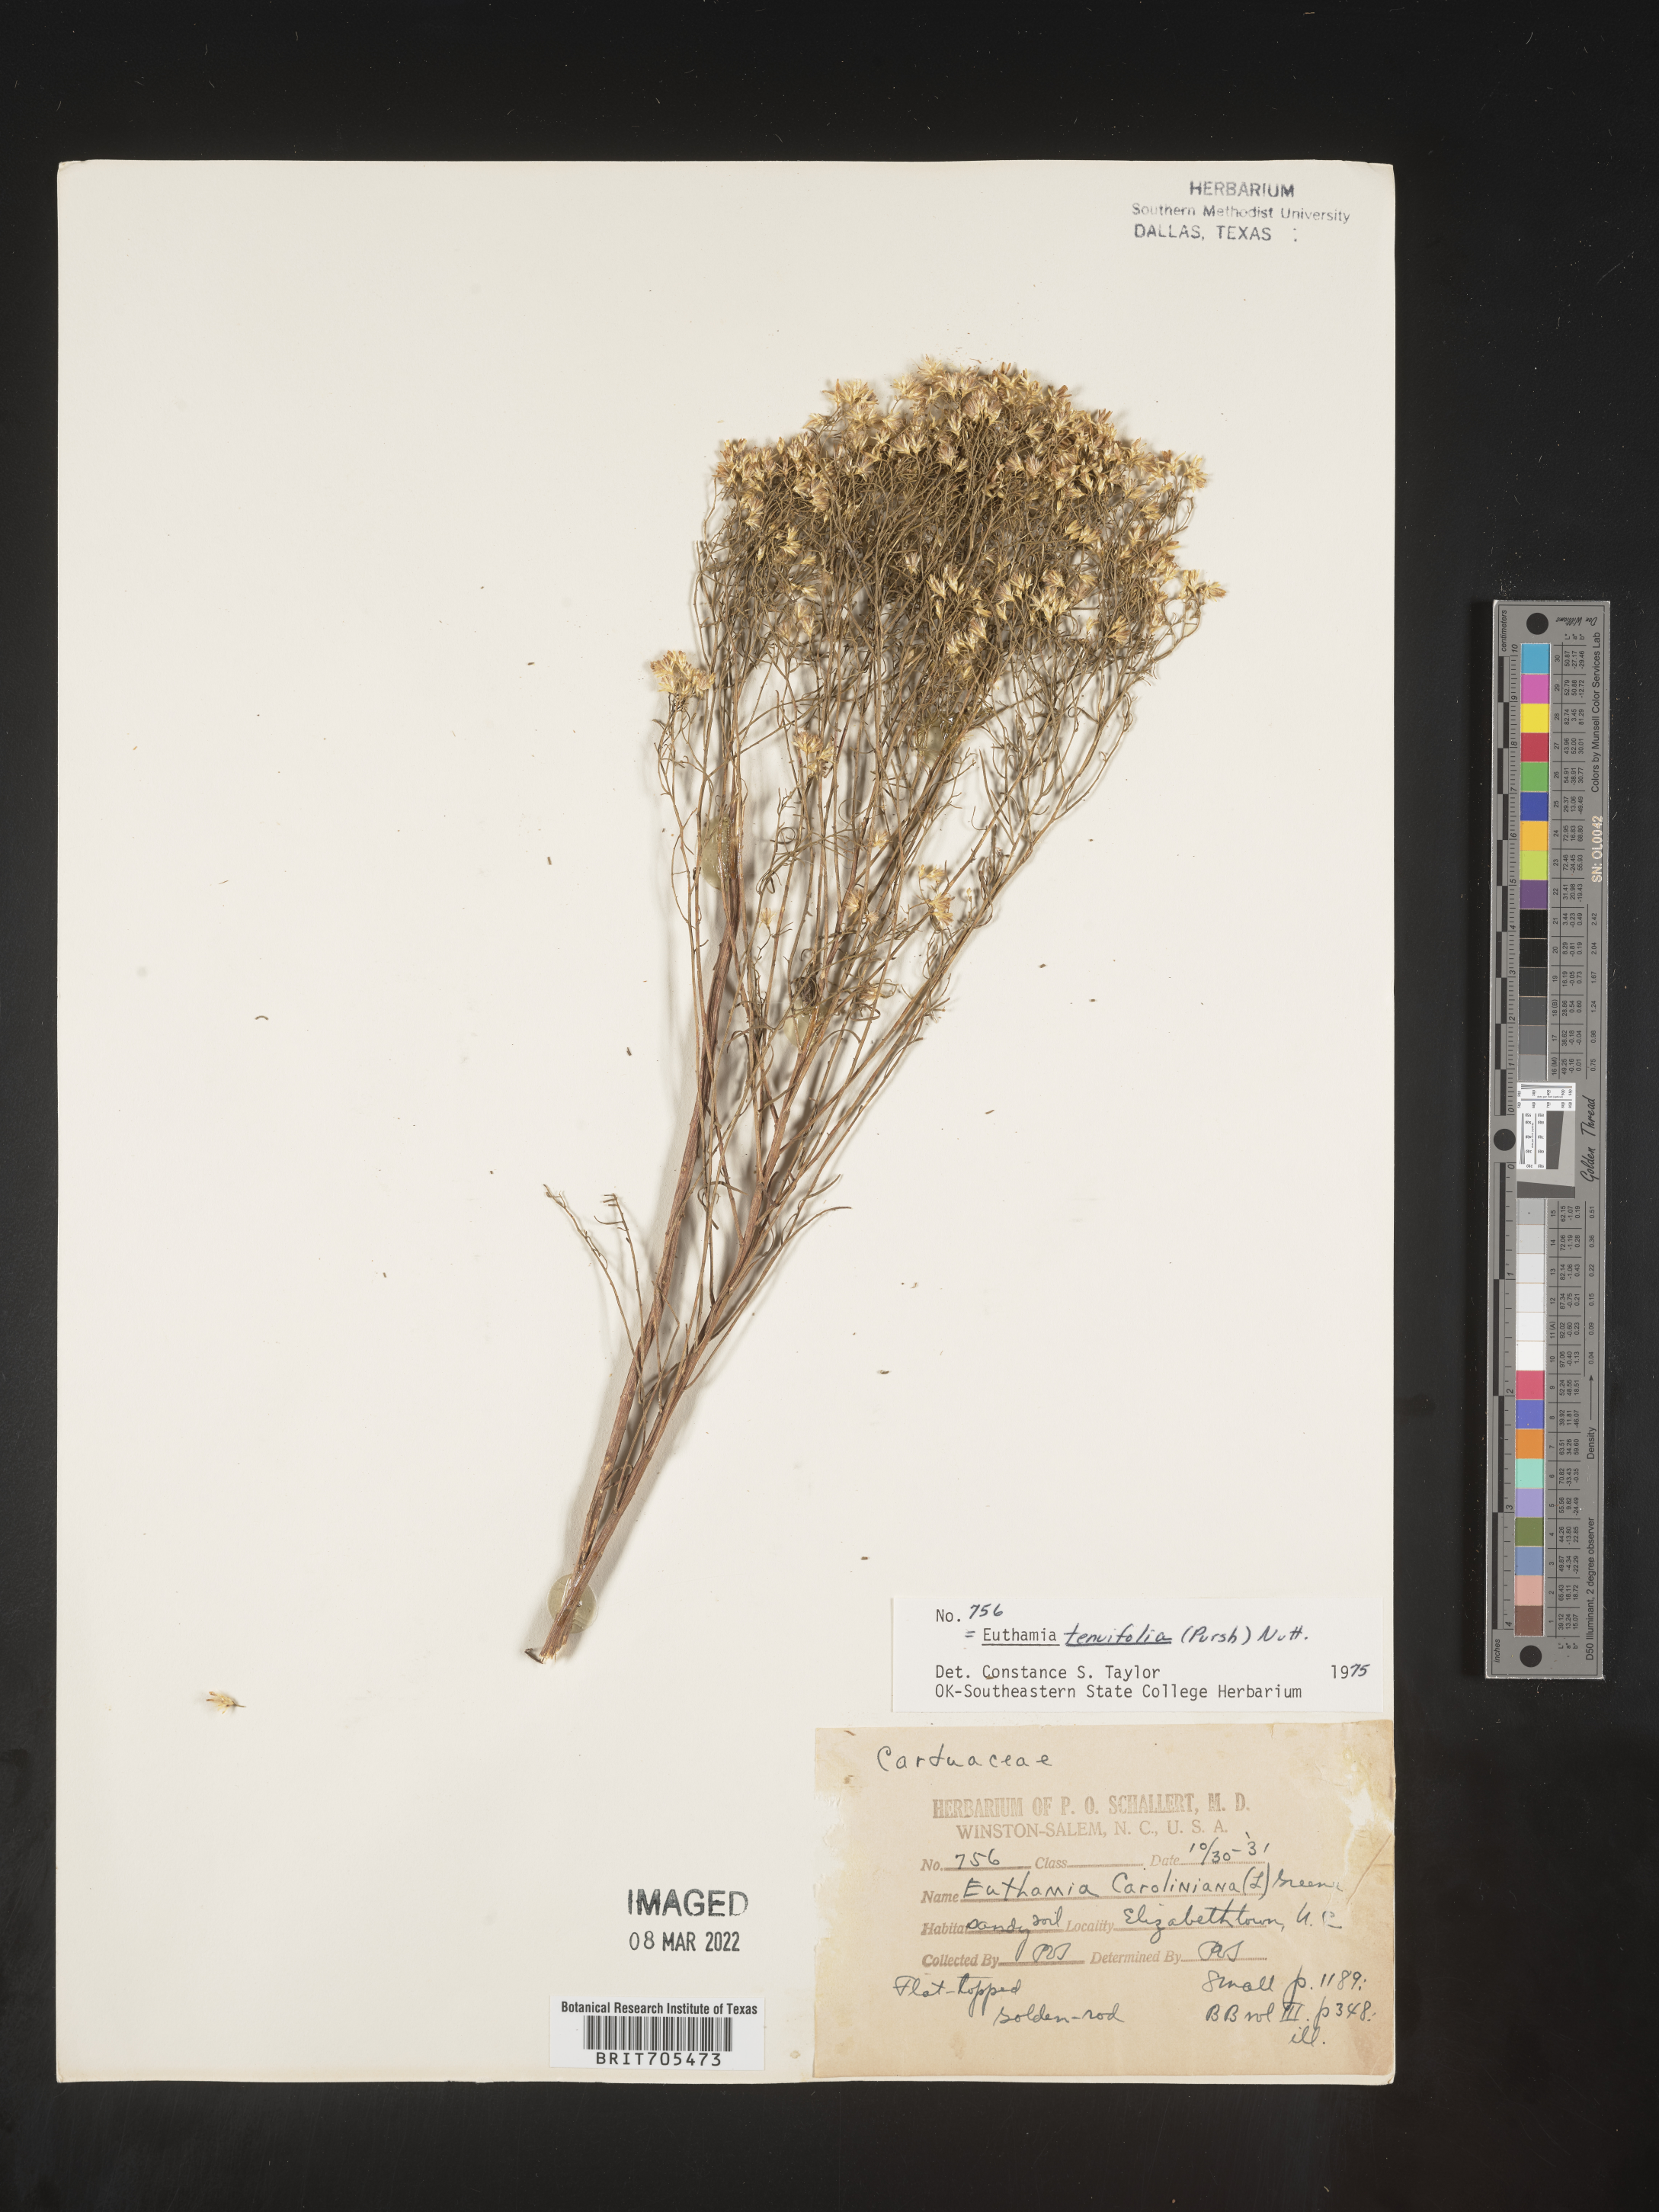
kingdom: Plantae
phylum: Tracheophyta
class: Magnoliopsida
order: Asterales
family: Asteraceae
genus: Euthamia
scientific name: Euthamia caroliniana
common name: Coastal plain goldentop
